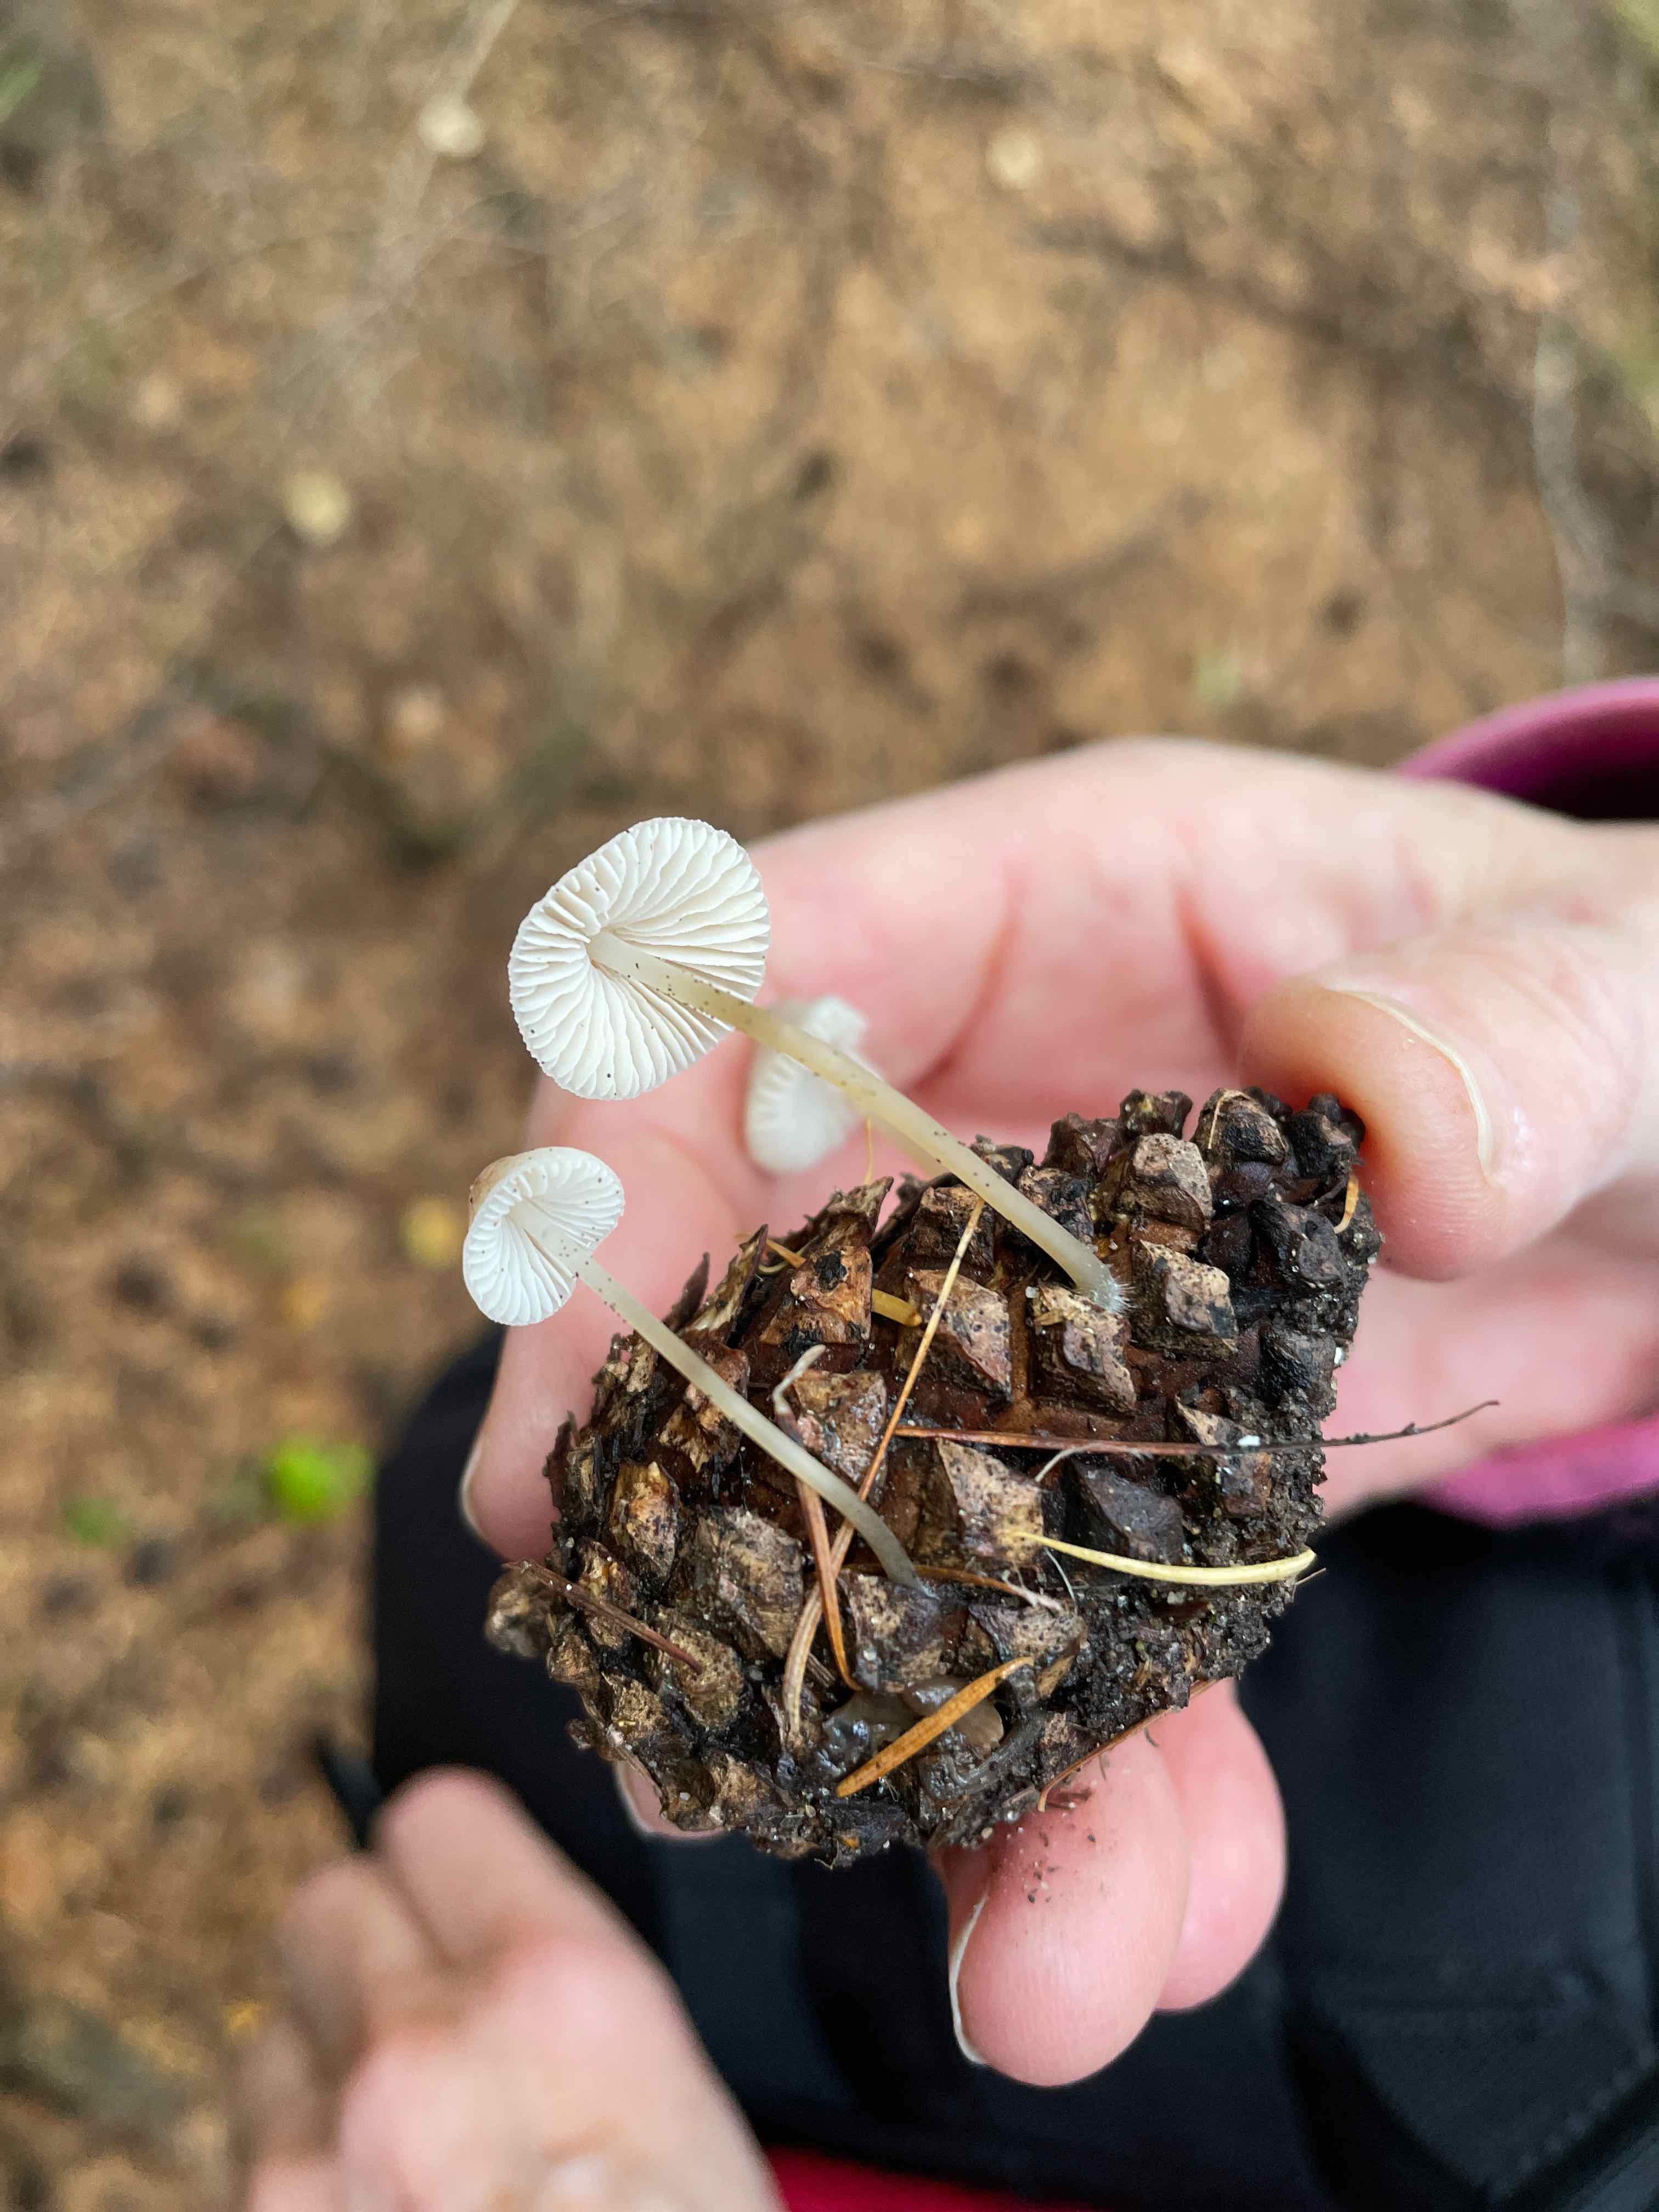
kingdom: Fungi
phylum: Basidiomycota
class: Agaricomycetes
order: Agaricales
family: Mycenaceae
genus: Mycena
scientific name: Mycena
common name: huesvamp
